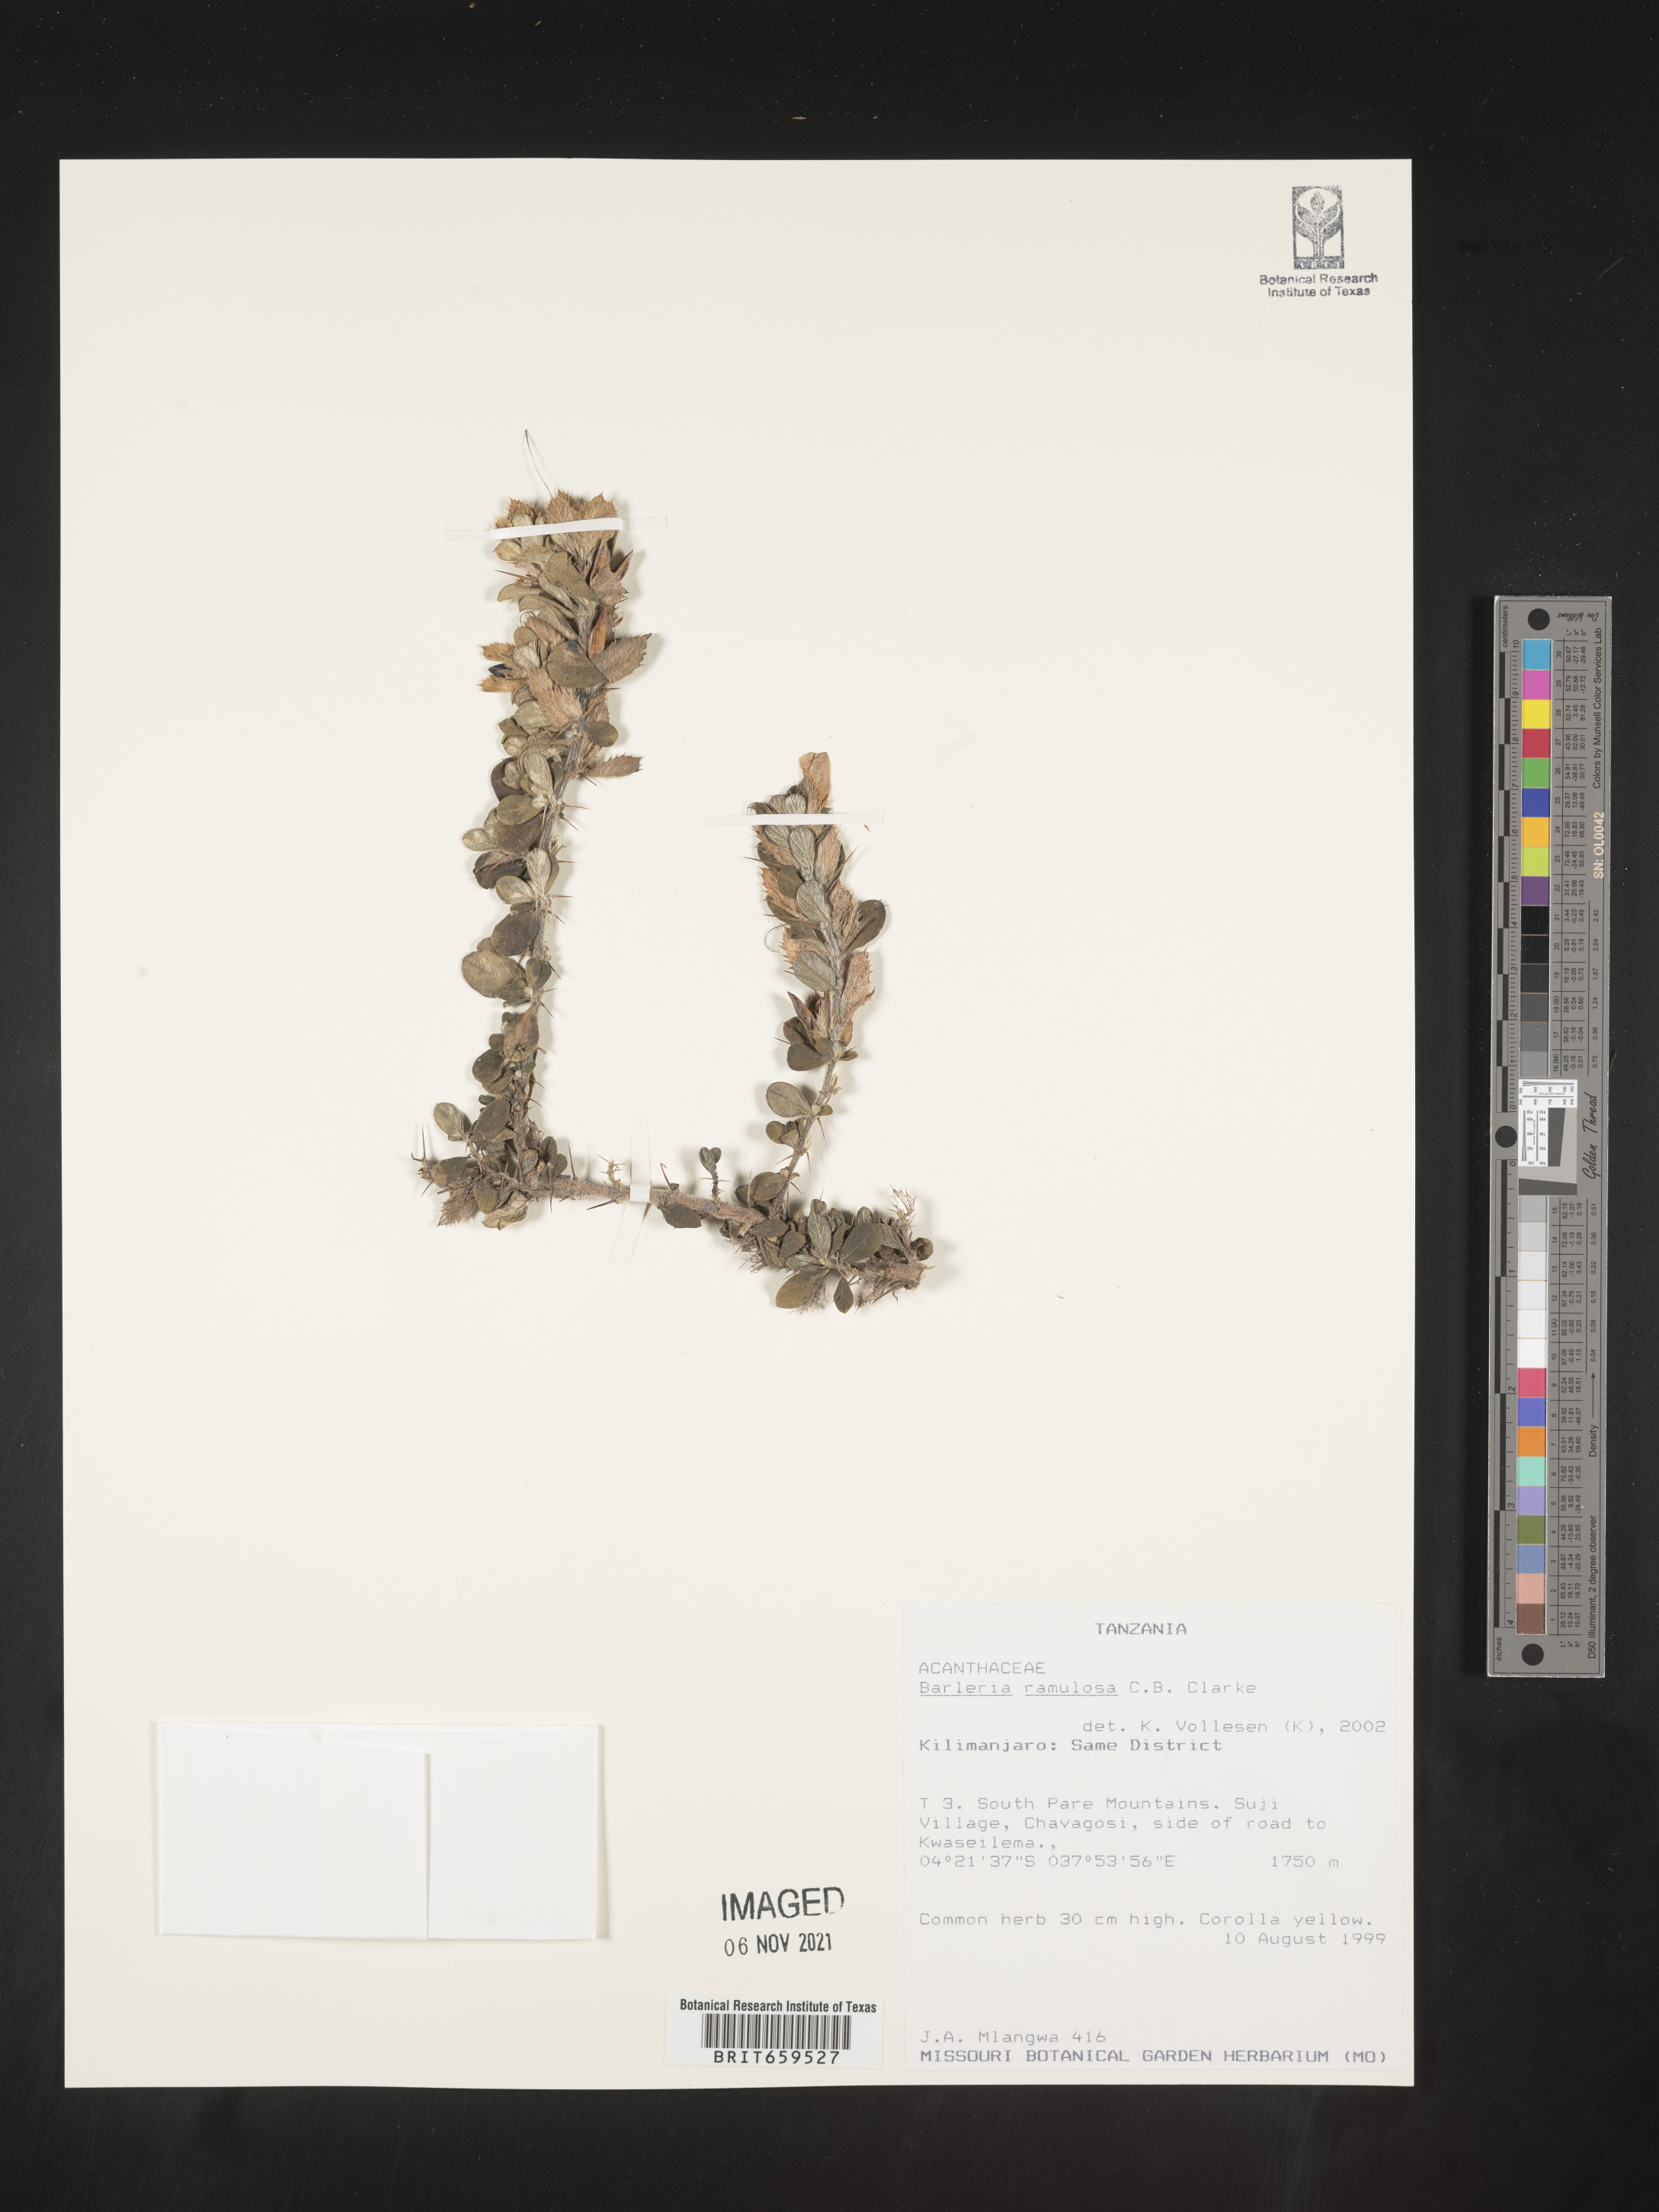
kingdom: Plantae
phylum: Tracheophyta
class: Magnoliopsida
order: Lamiales
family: Acanthaceae
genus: Barleria
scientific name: Barleria ramulosa
